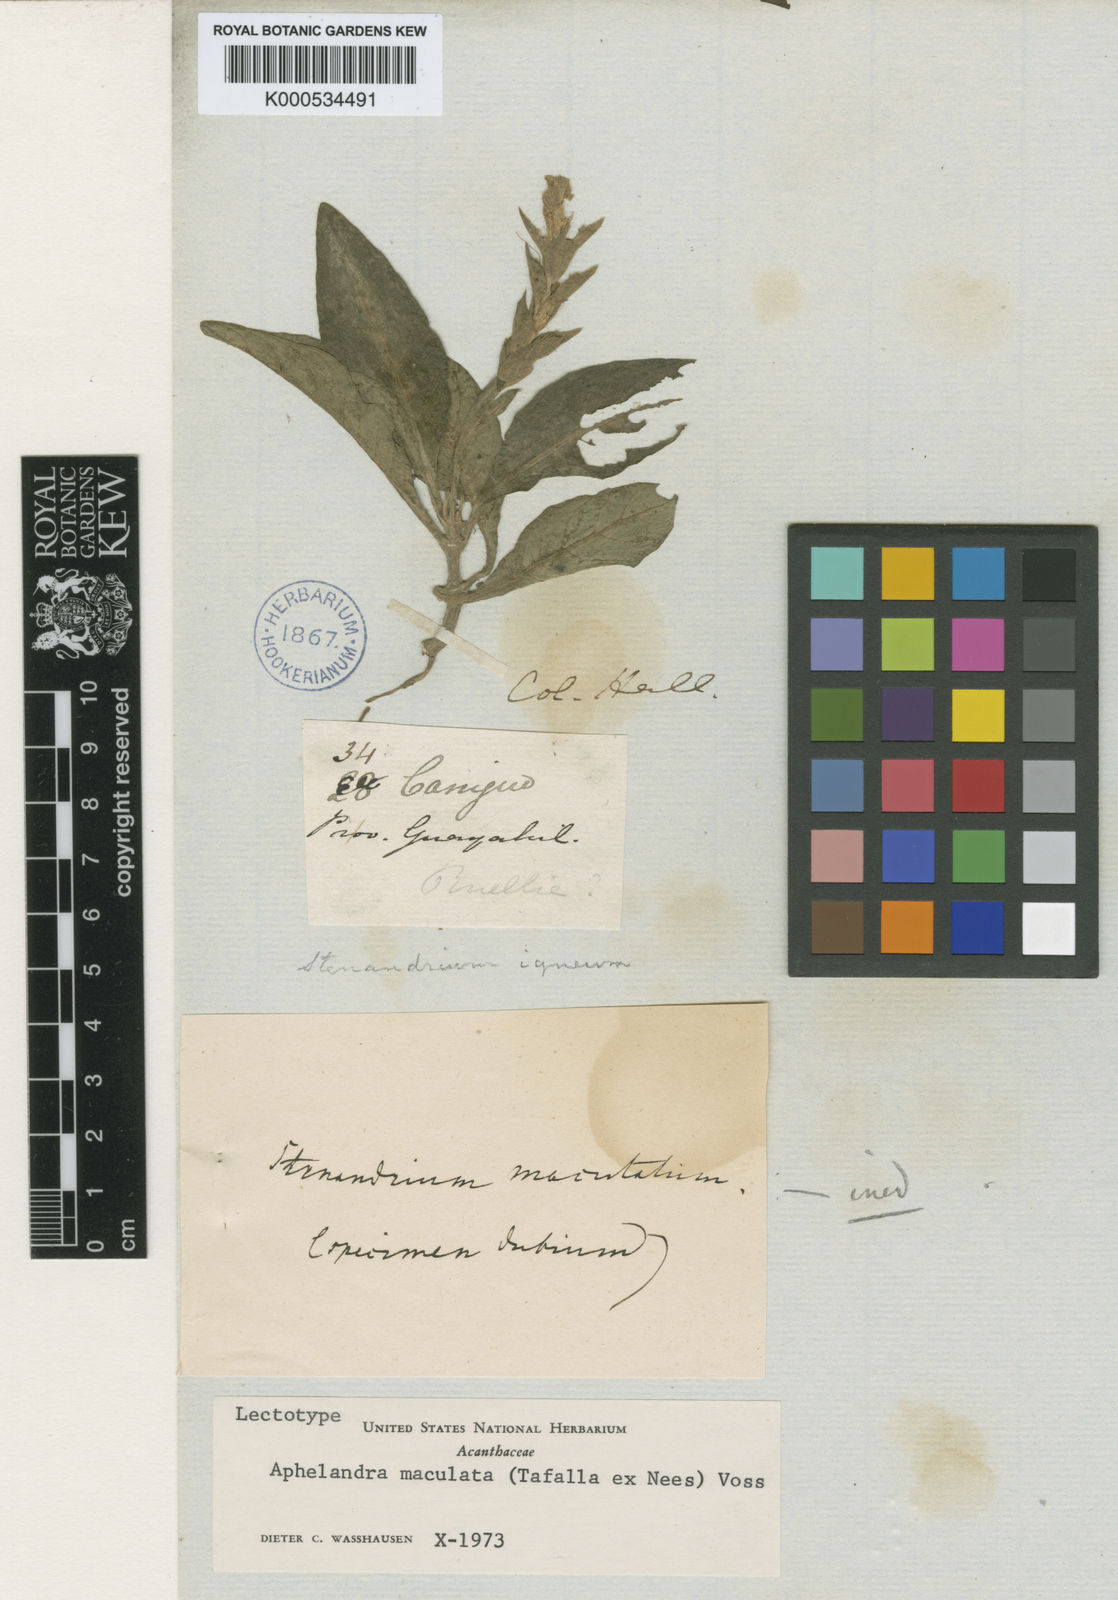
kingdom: Plantae
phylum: Tracheophyta
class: Magnoliopsida
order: Lamiales
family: Acanthaceae
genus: Aphelandra
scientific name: Aphelandra maculata
